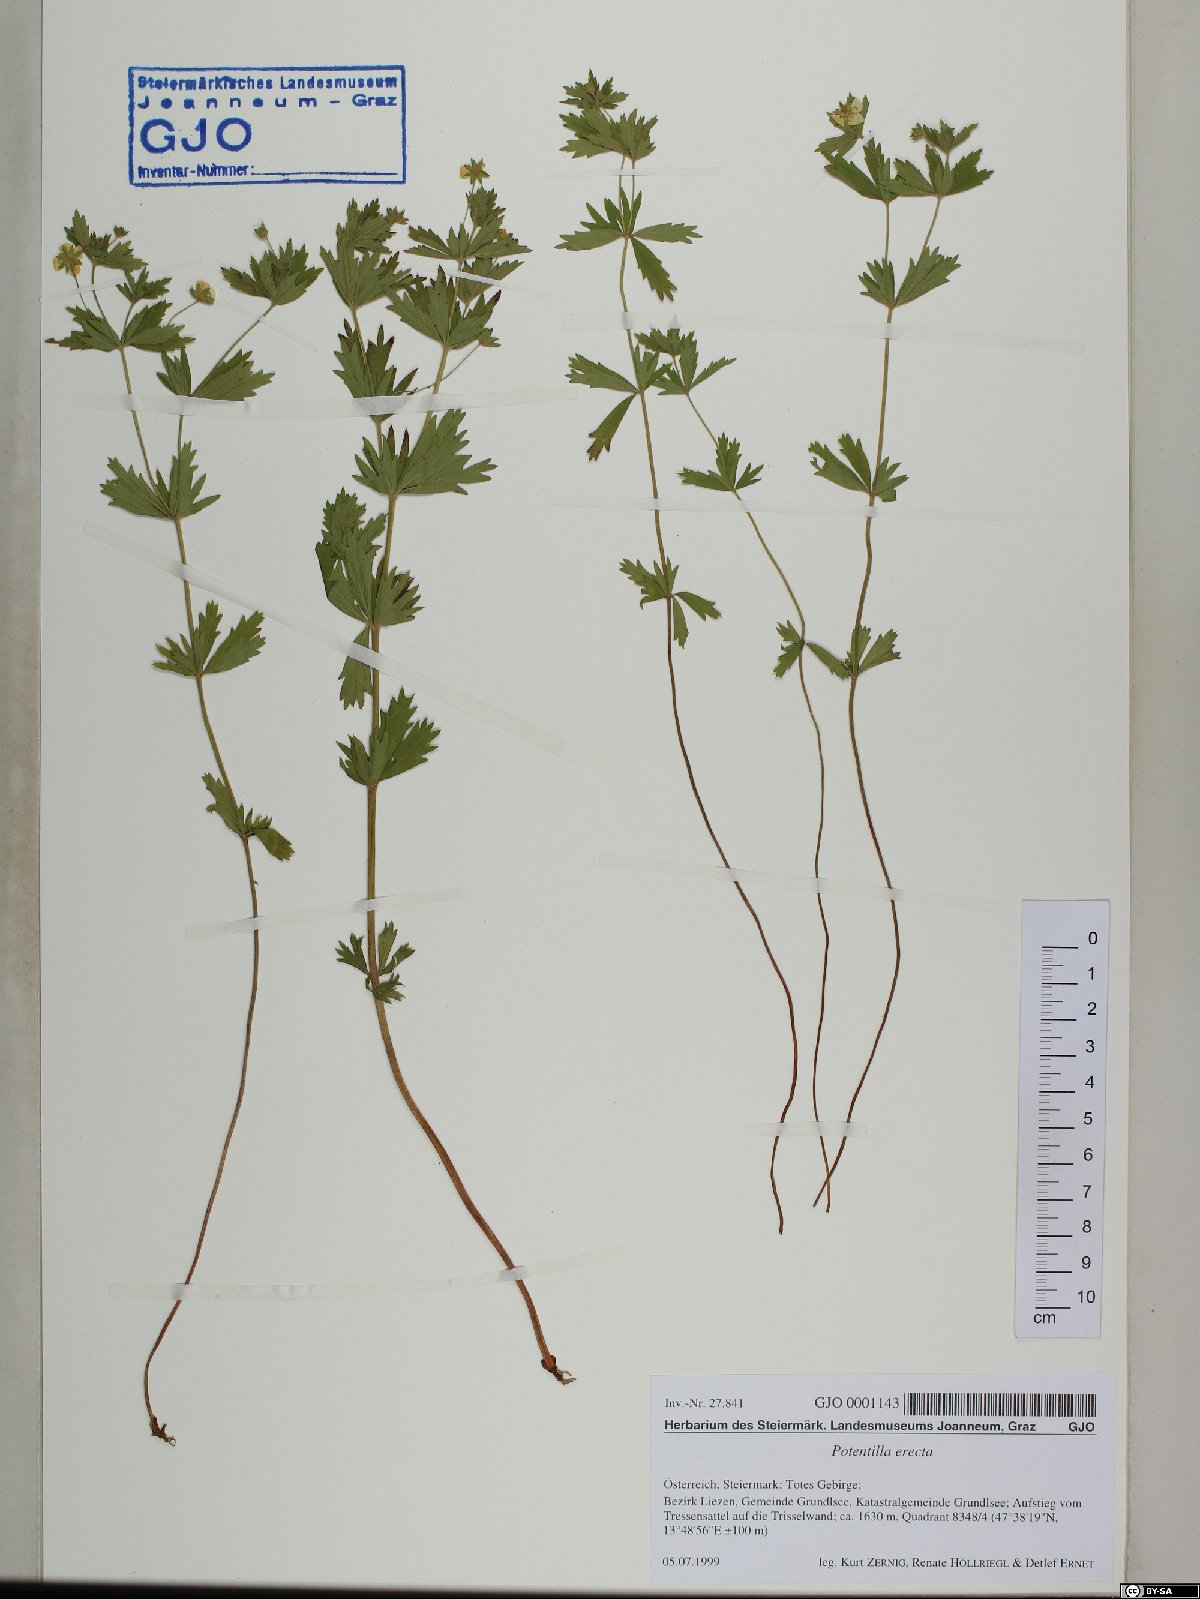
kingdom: Plantae
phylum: Tracheophyta
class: Magnoliopsida
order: Rosales
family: Rosaceae
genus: Potentilla
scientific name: Potentilla erecta
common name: Tormentil
